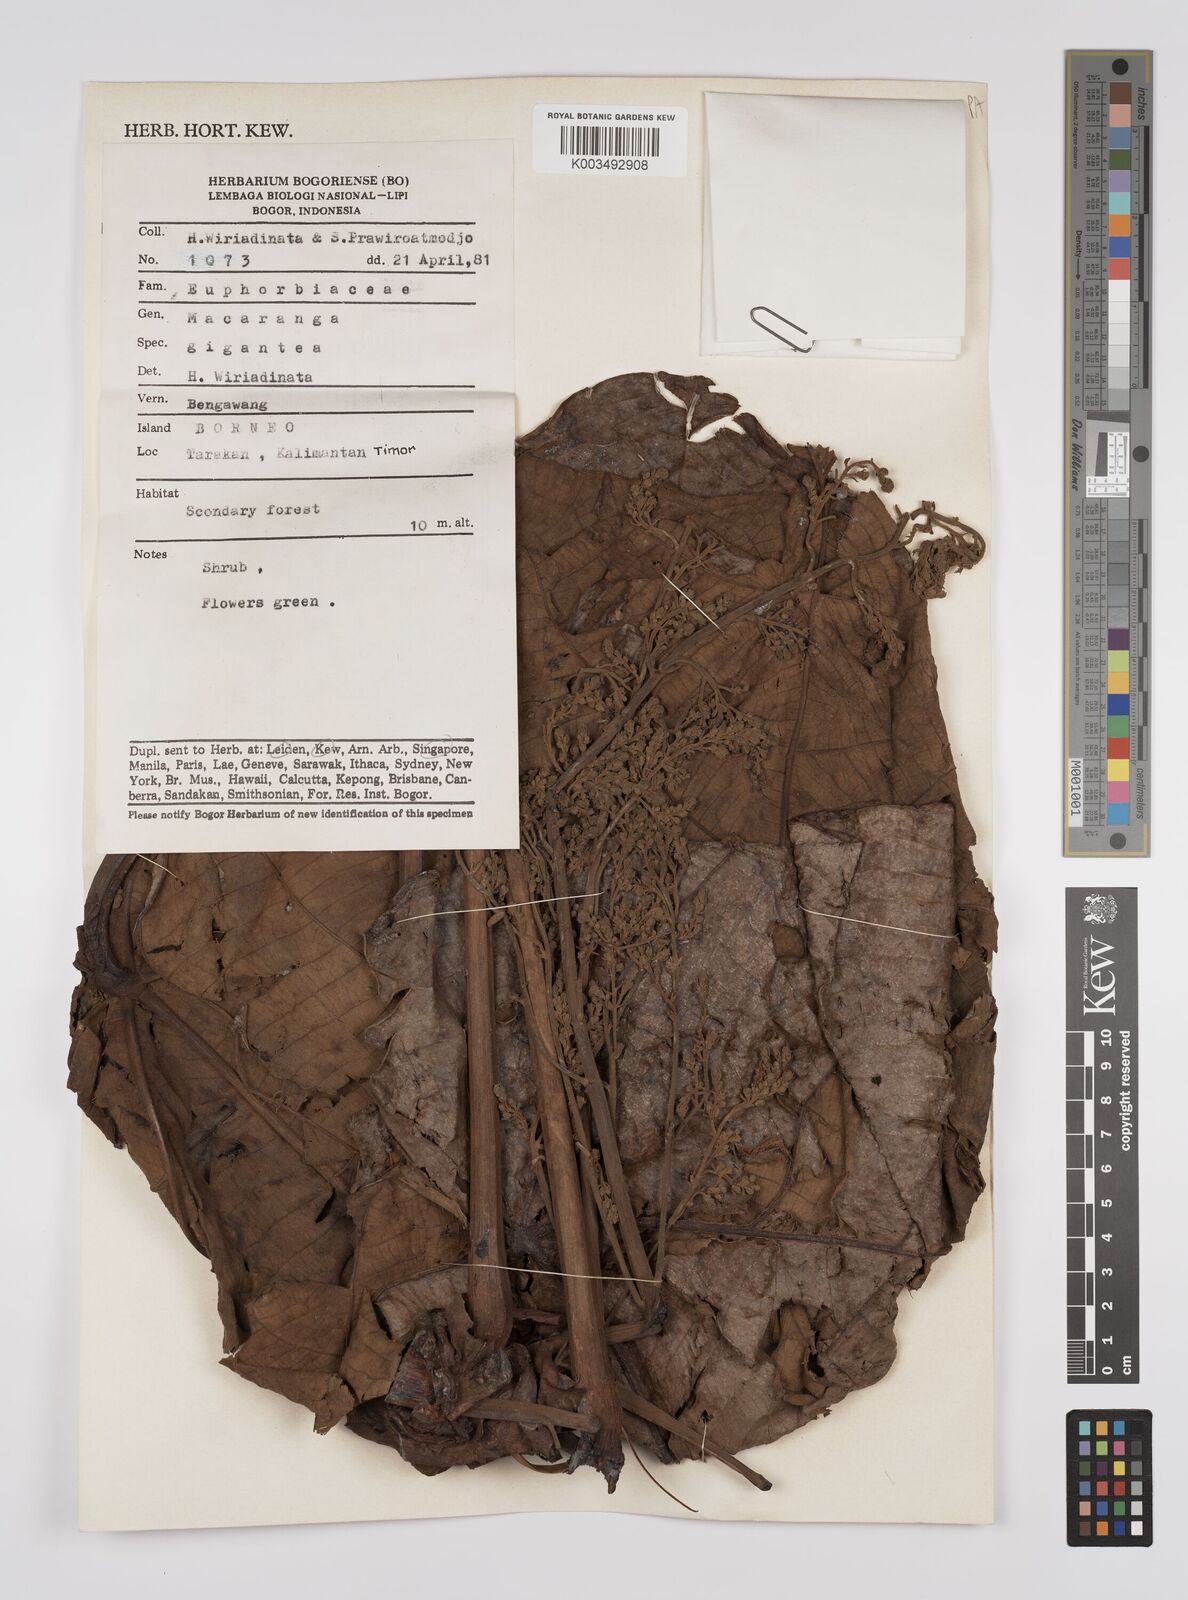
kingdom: Plantae
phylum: Tracheophyta
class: Magnoliopsida
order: Malpighiales
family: Euphorbiaceae
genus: Macaranga
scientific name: Macaranga gigantea
